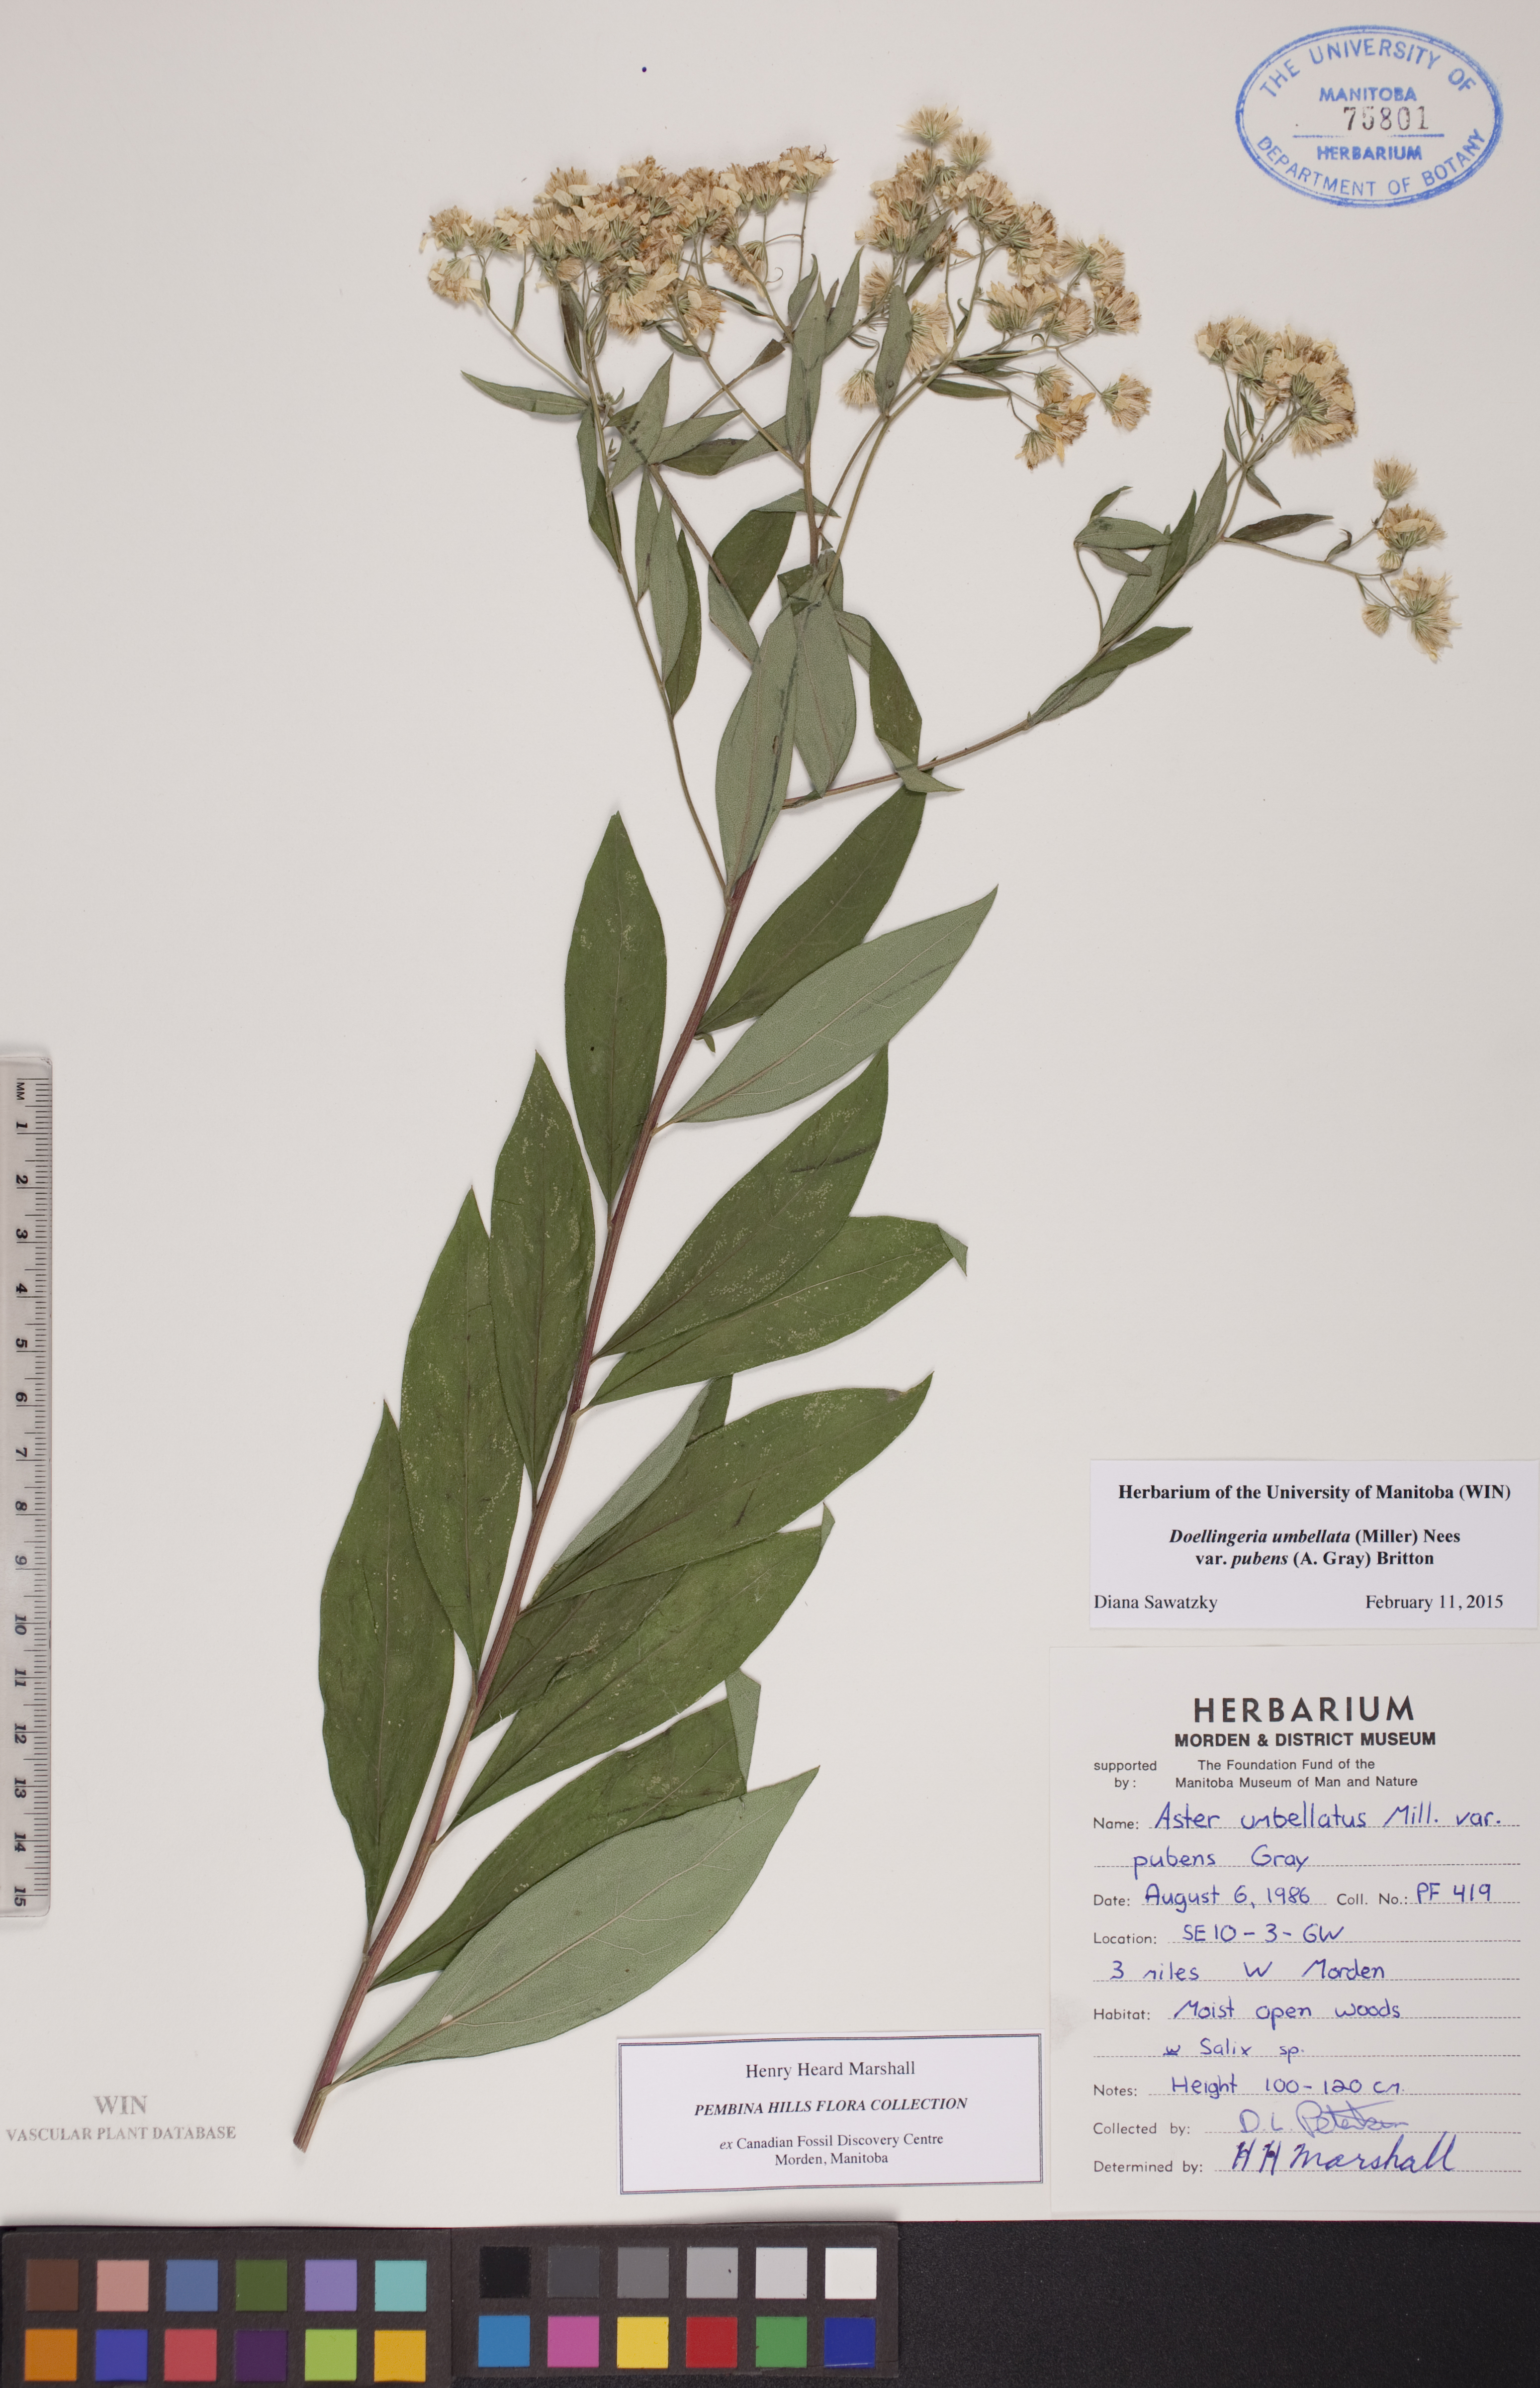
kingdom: Plantae
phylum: Tracheophyta
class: Magnoliopsida
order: Asterales
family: Asteraceae
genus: Doellingeria
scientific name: Doellingeria umbellata
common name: Flat-top white aster
